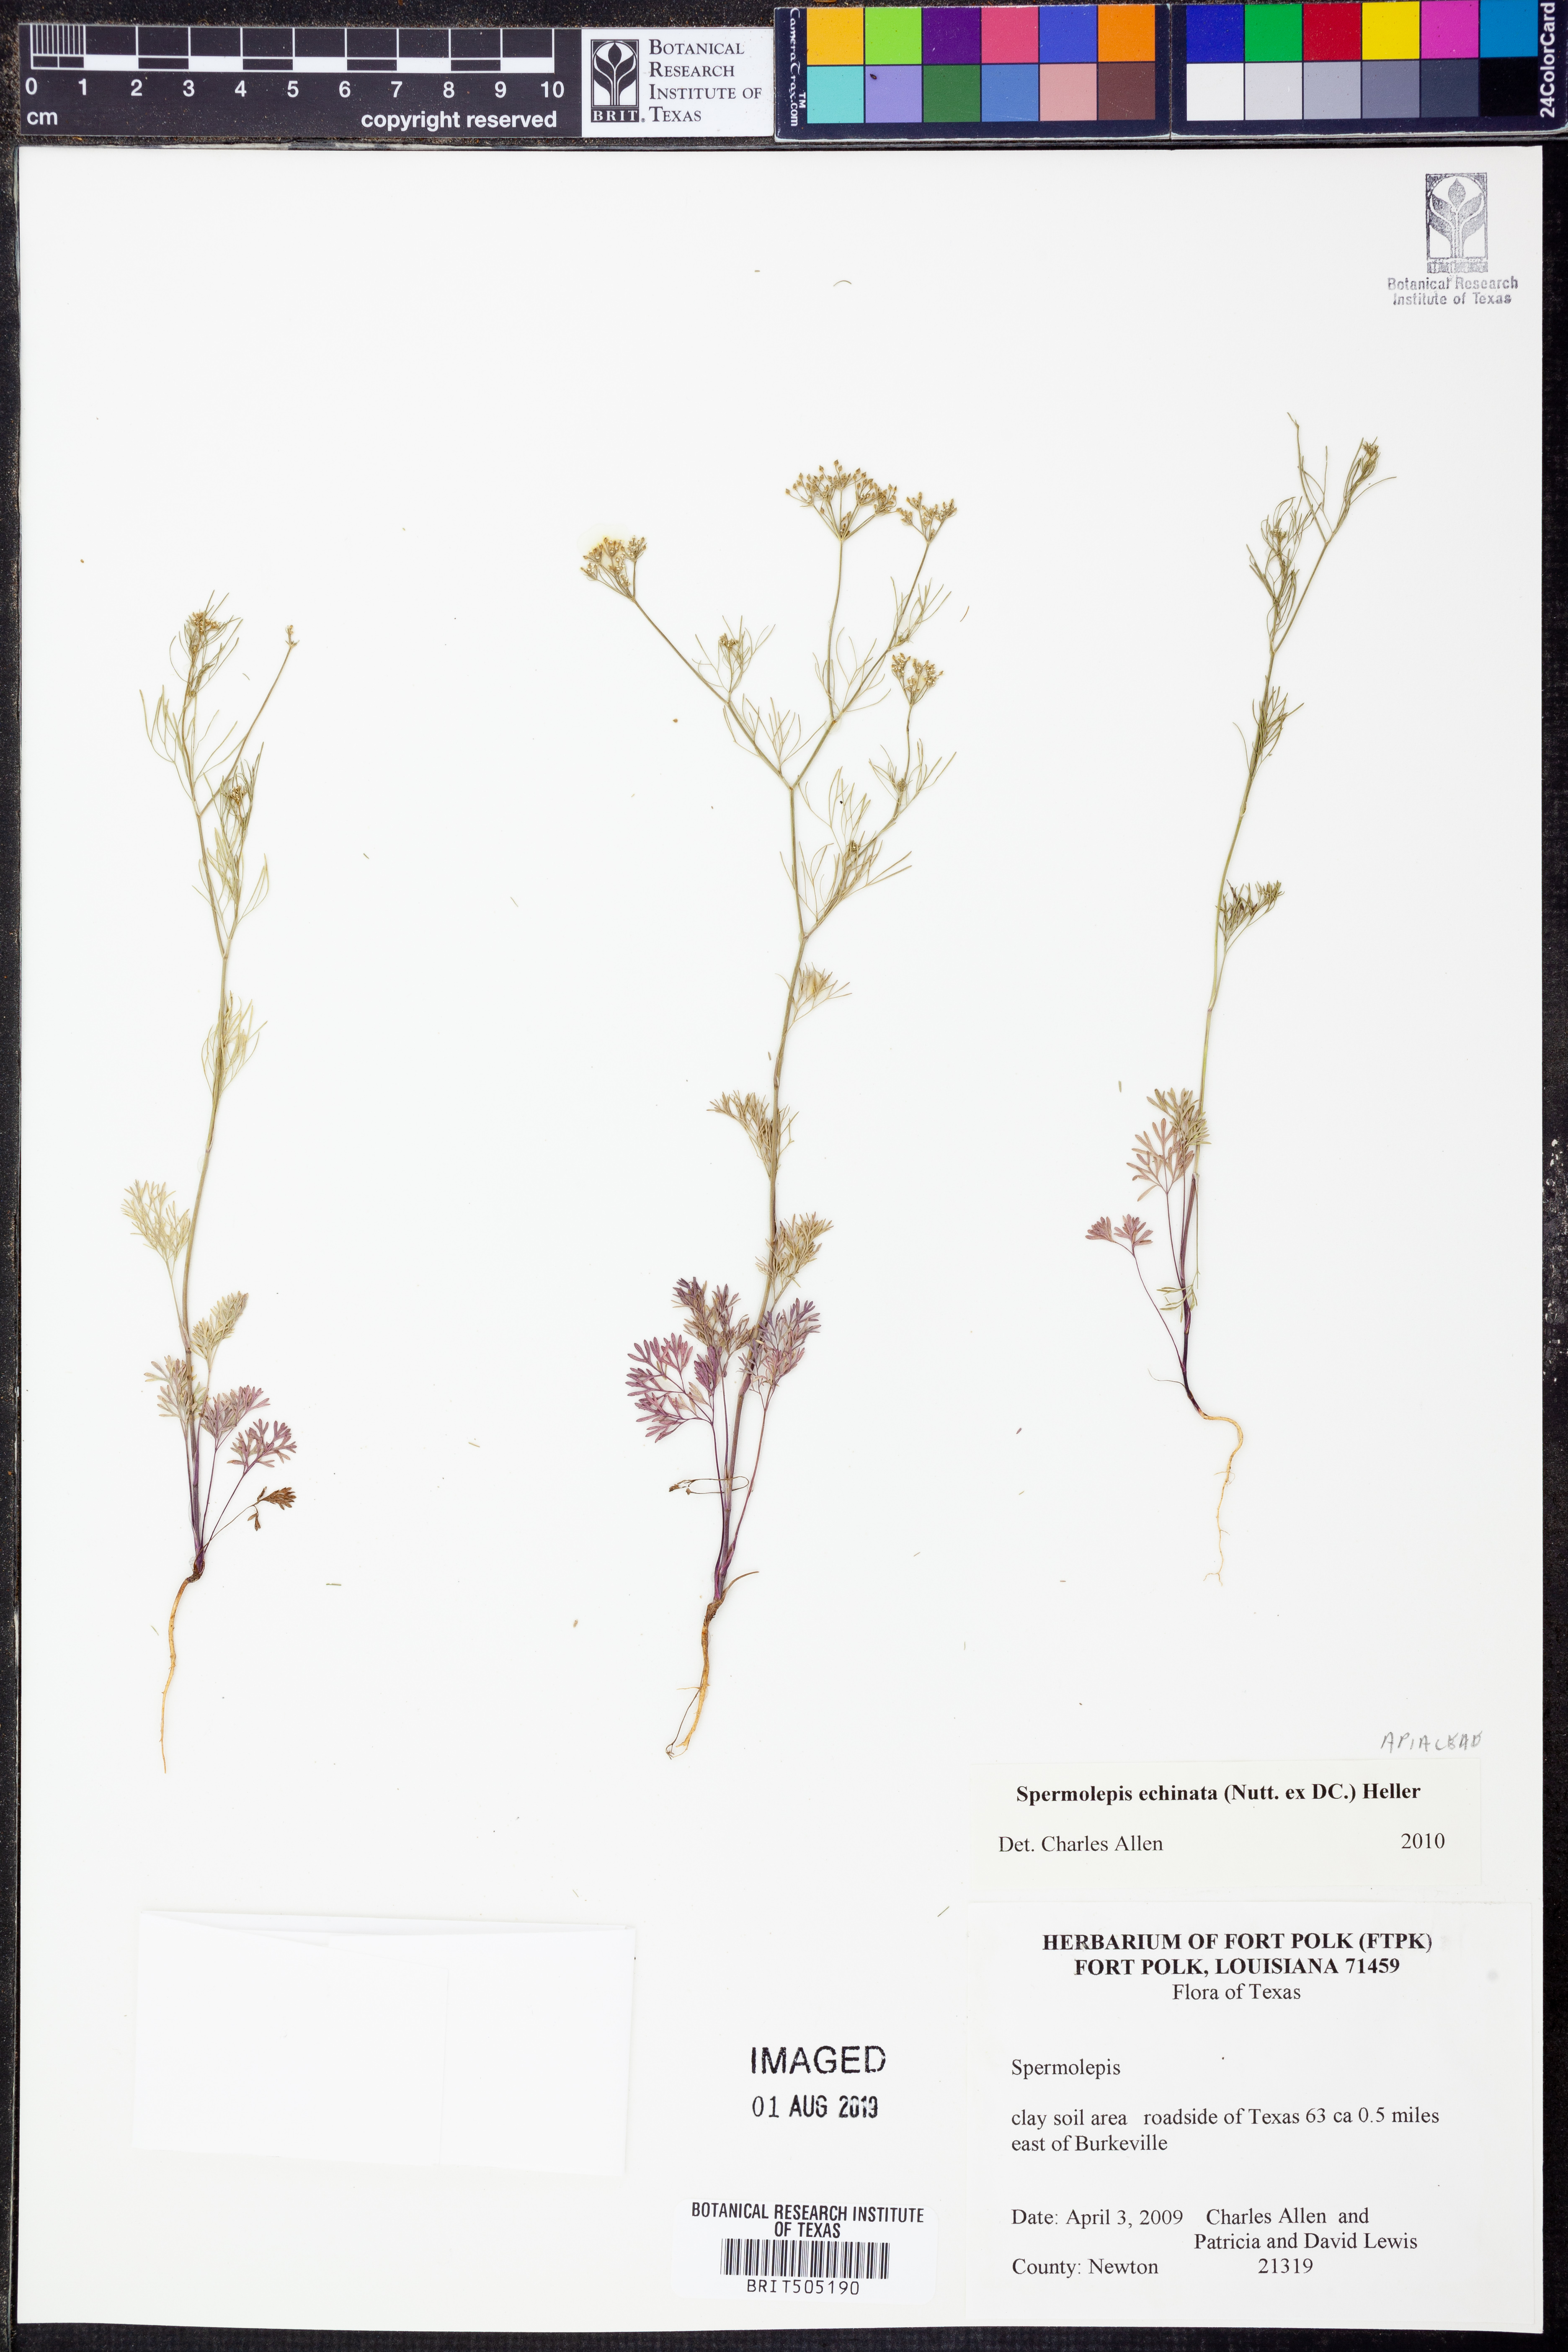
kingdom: Plantae
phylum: Tracheophyta
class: Magnoliopsida
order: Apiales
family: Apiaceae
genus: Spermolepis
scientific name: Spermolepis echinata
